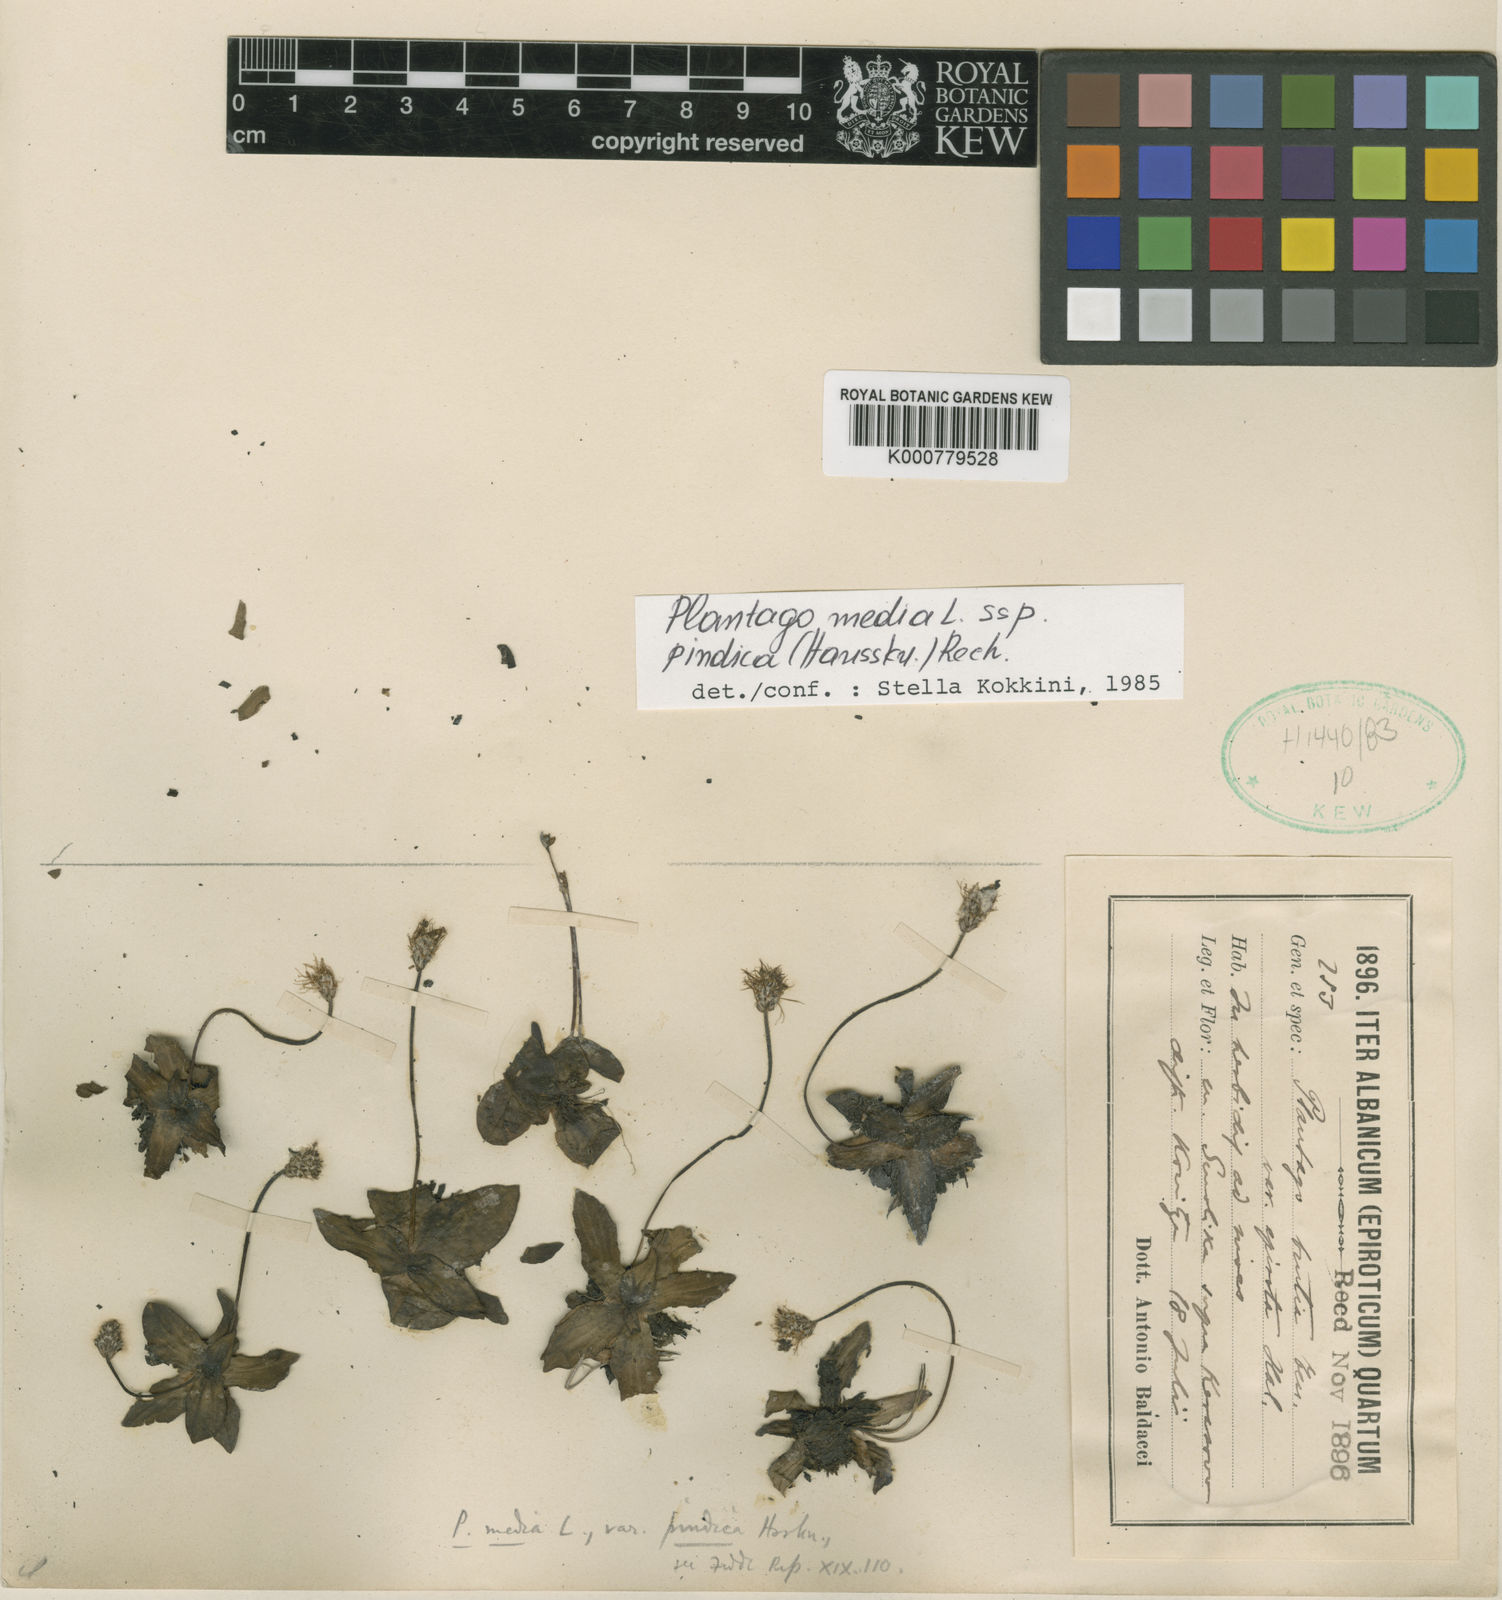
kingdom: Plantae
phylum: Tracheophyta
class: Magnoliopsida
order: Lamiales
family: Plantaginaceae
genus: Plantago
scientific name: Plantago media
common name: Hoary plantain
